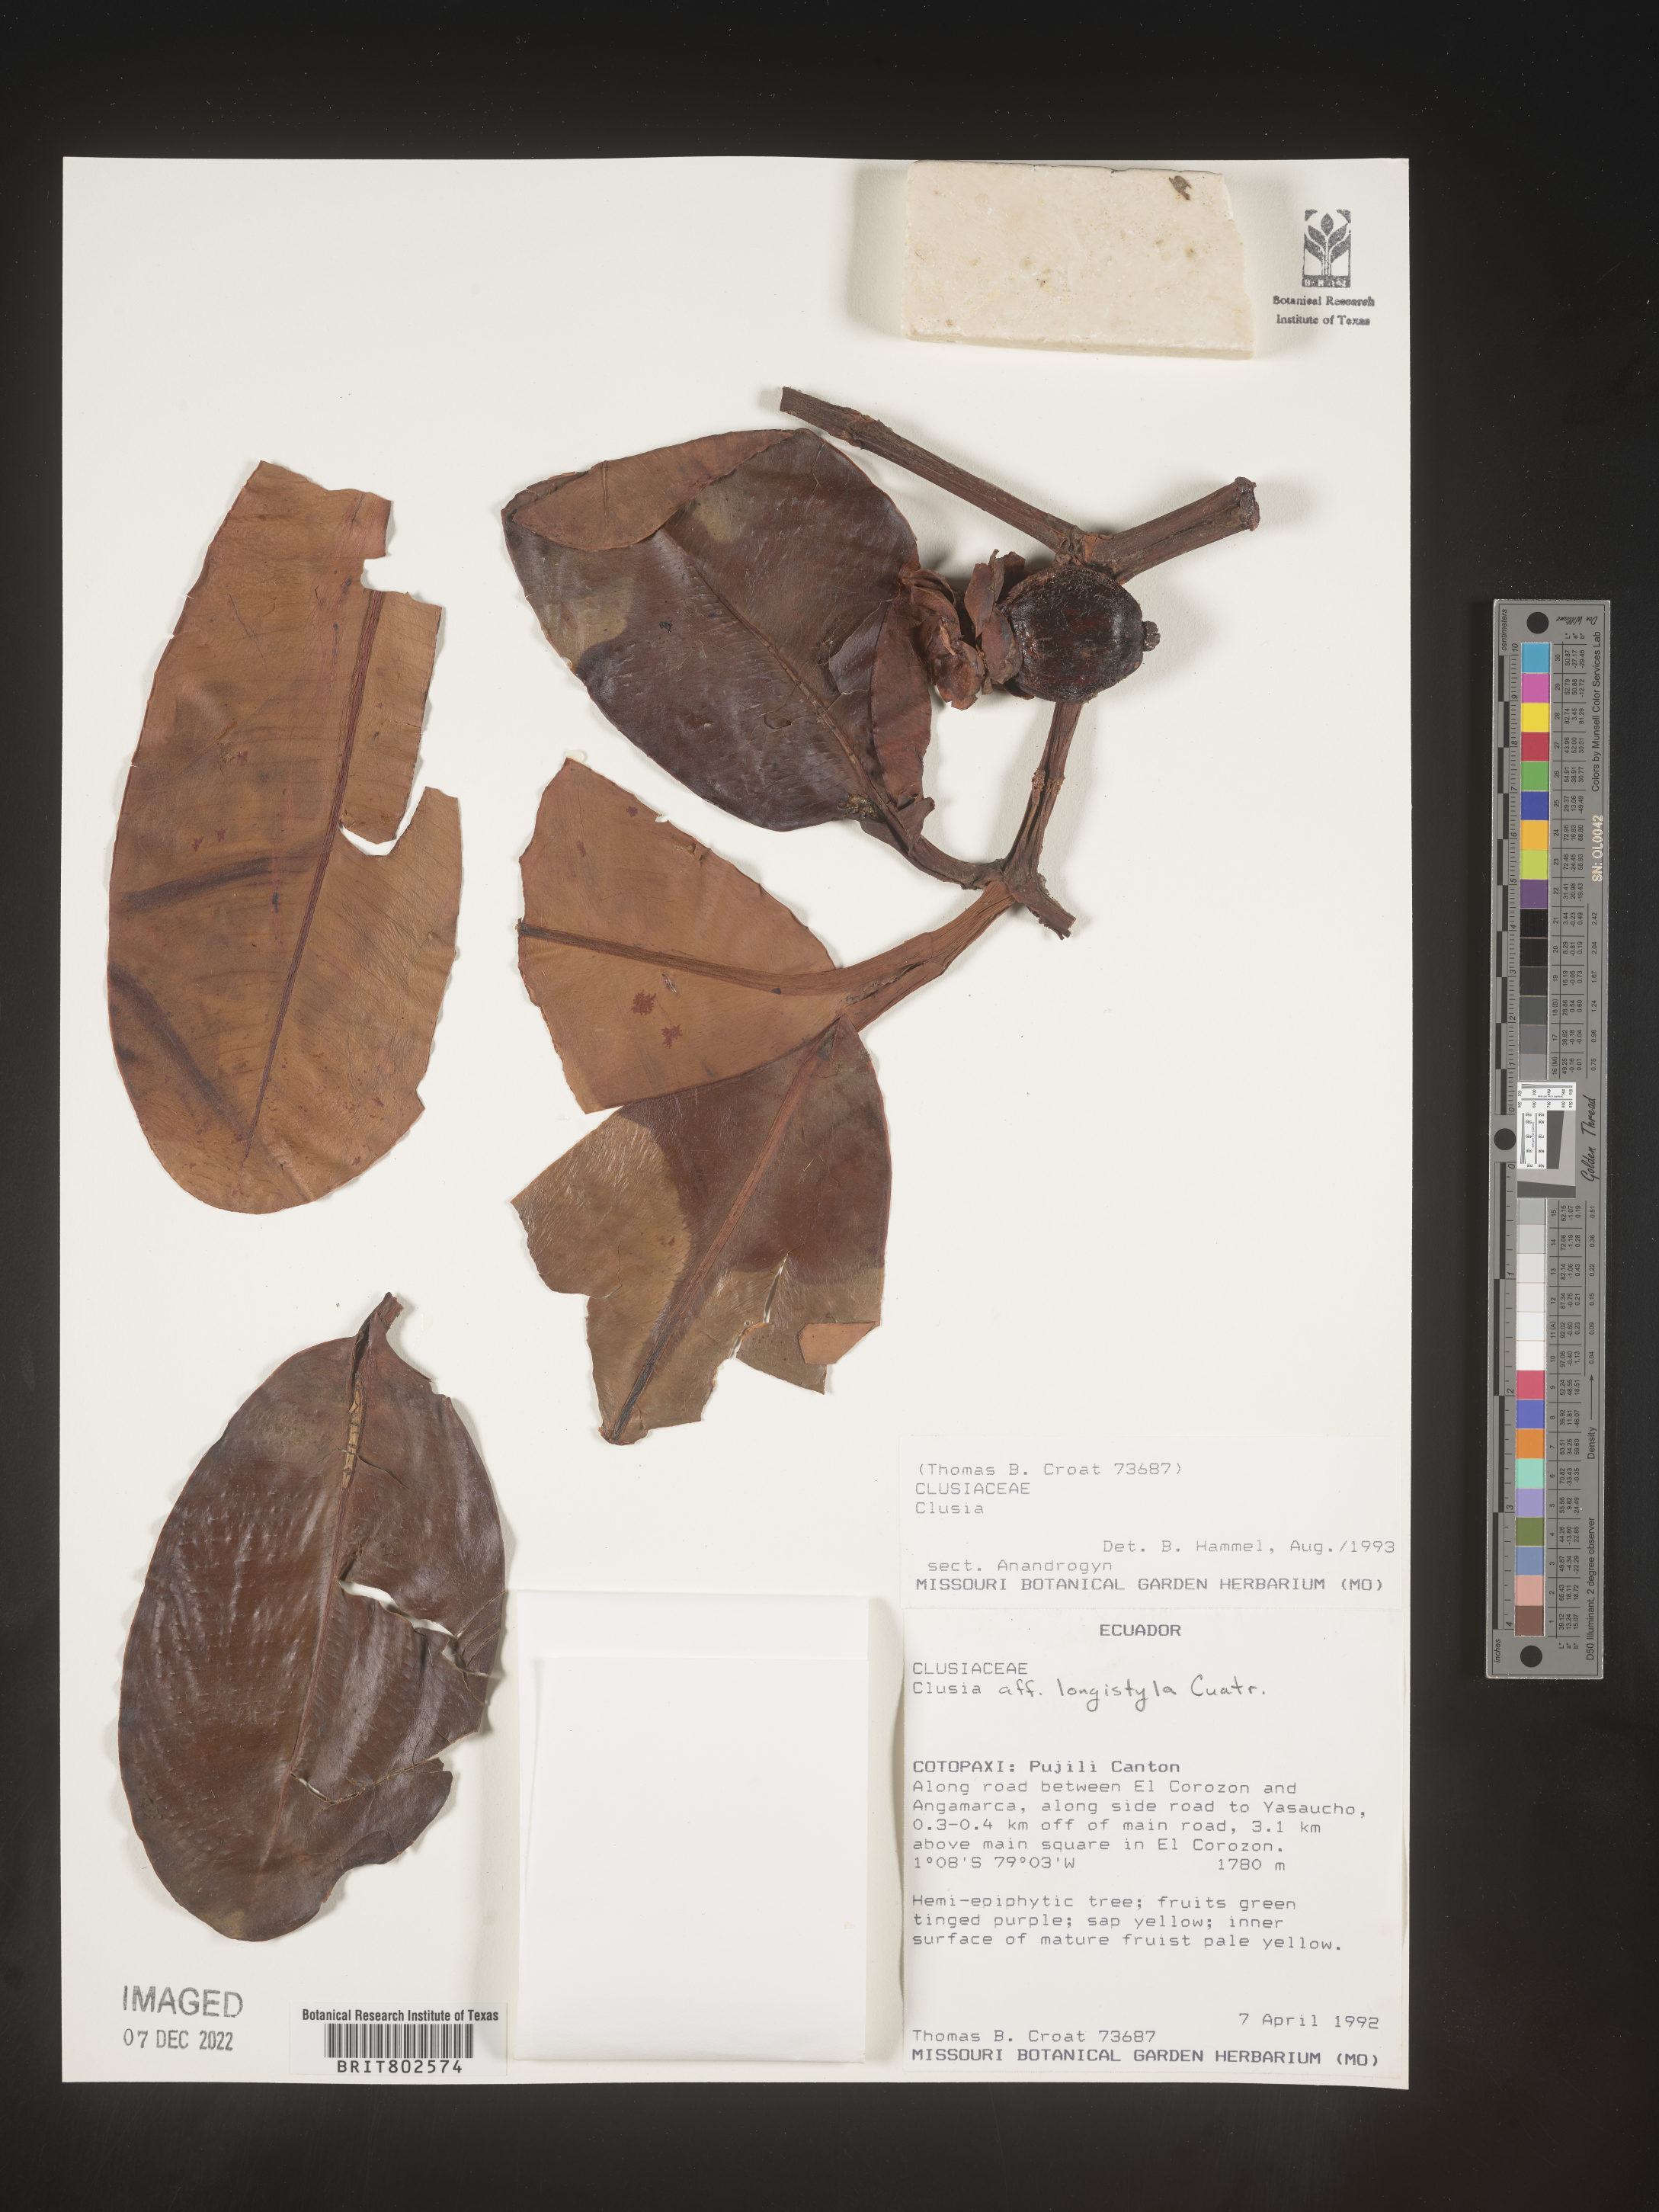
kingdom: Plantae
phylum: Tracheophyta
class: Magnoliopsida
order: Malpighiales
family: Clusiaceae
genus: Clusia
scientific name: Clusia rotundata
